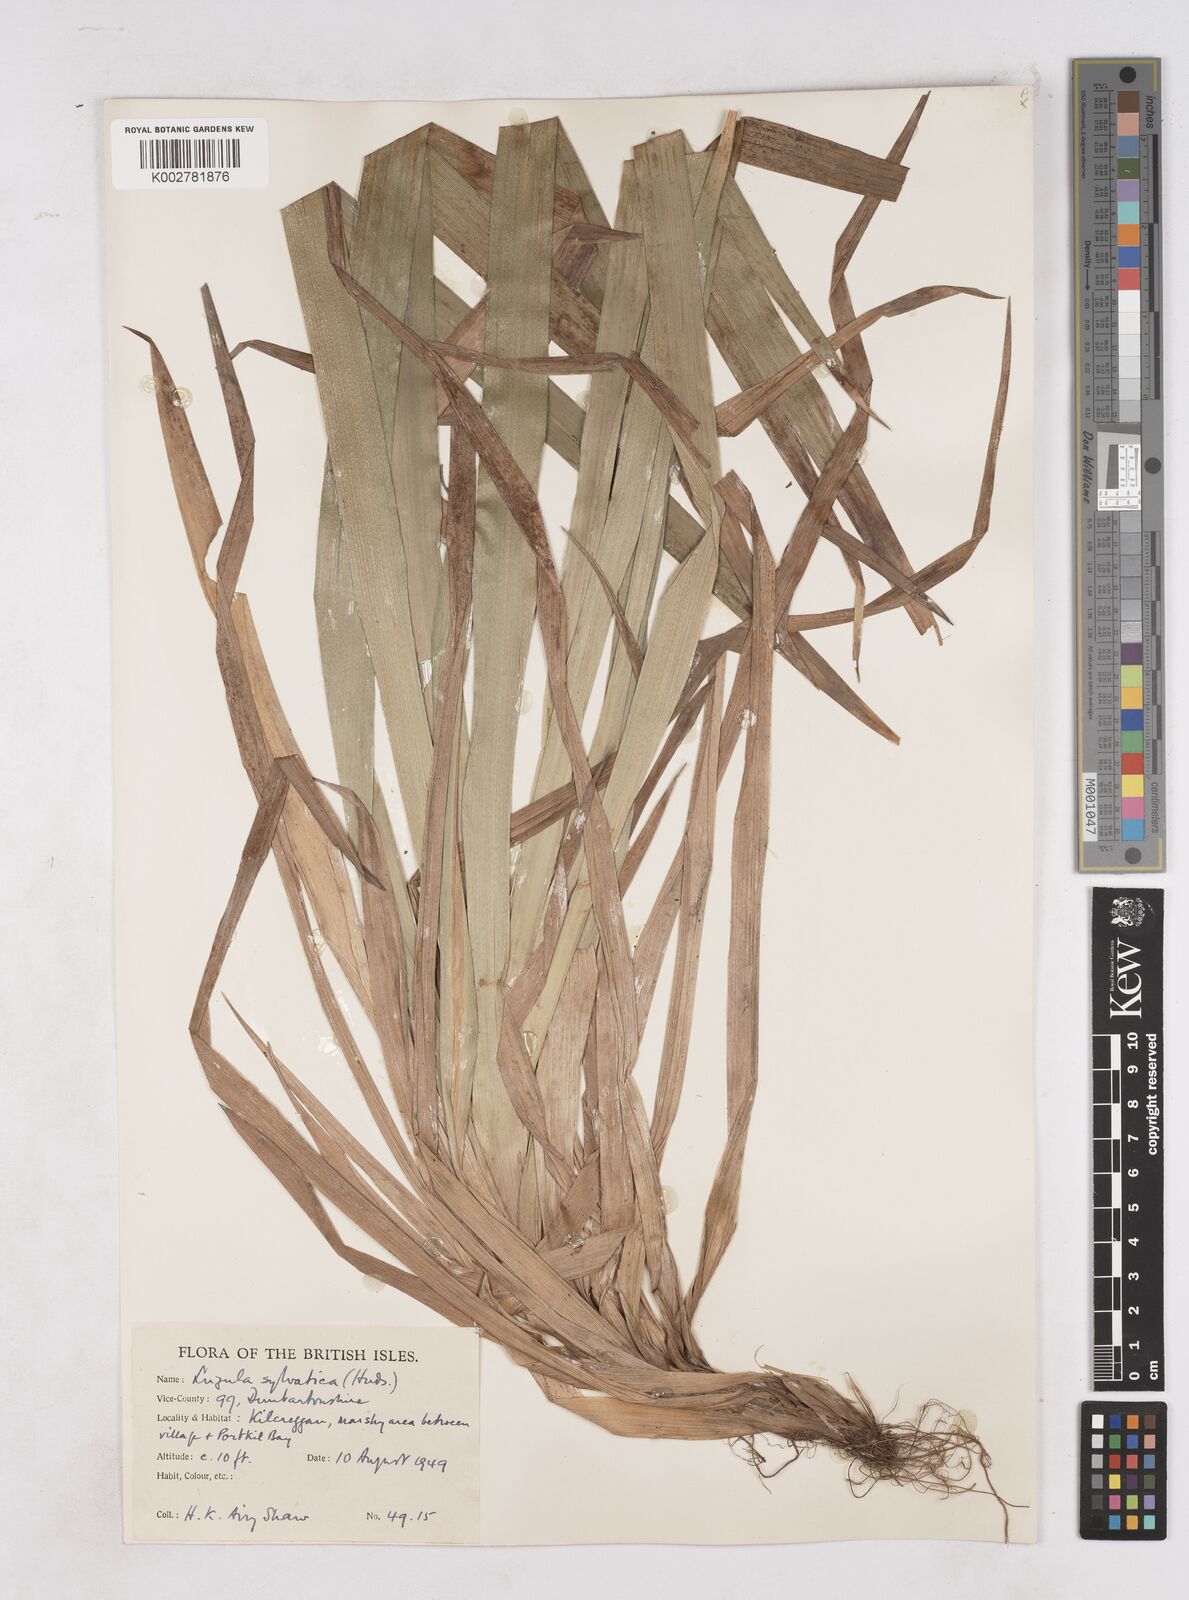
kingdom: Plantae
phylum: Tracheophyta
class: Liliopsida
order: Poales
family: Juncaceae
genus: Luzula
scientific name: Luzula sylvatica
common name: Great wood-rush
